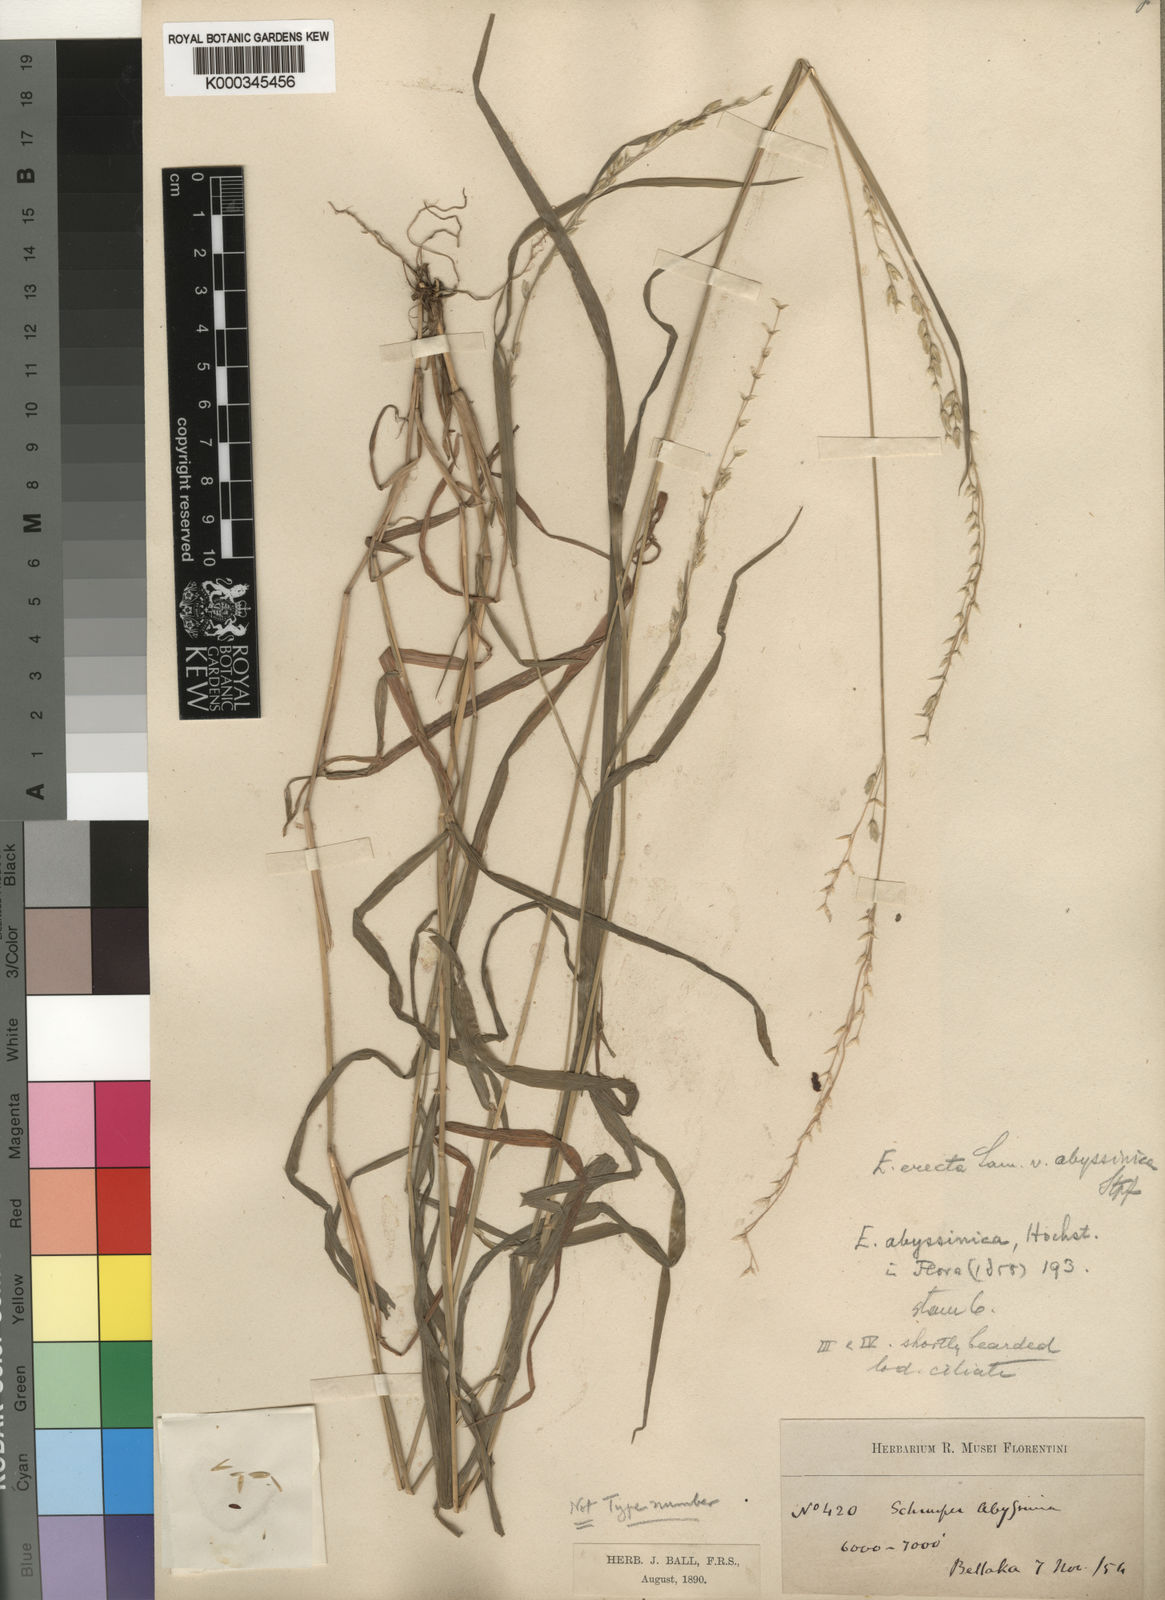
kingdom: Plantae
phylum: Tracheophyta
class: Liliopsida
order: Poales
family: Poaceae
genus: Ehrharta
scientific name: Ehrharta erecta
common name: Panic veldtgrass
